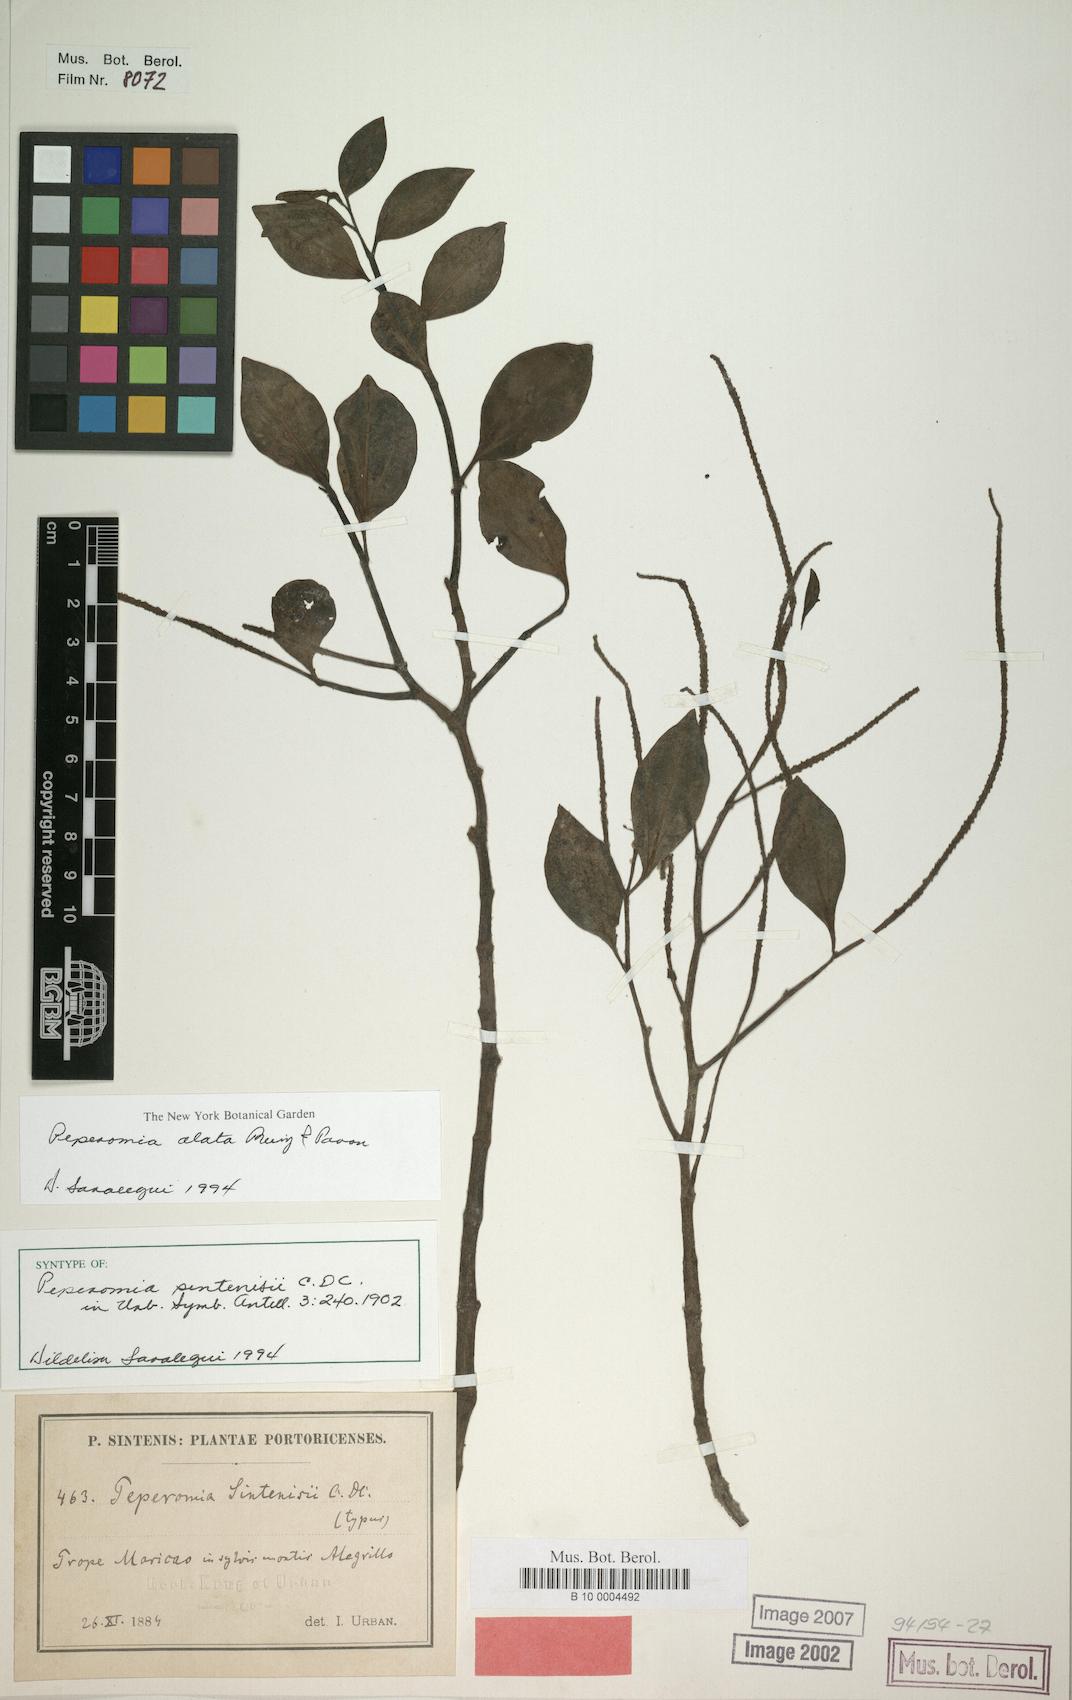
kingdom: Plantae
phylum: Tracheophyta
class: Magnoliopsida
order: Piperales
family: Piperaceae
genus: Peperomia
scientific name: Peperomia alata
